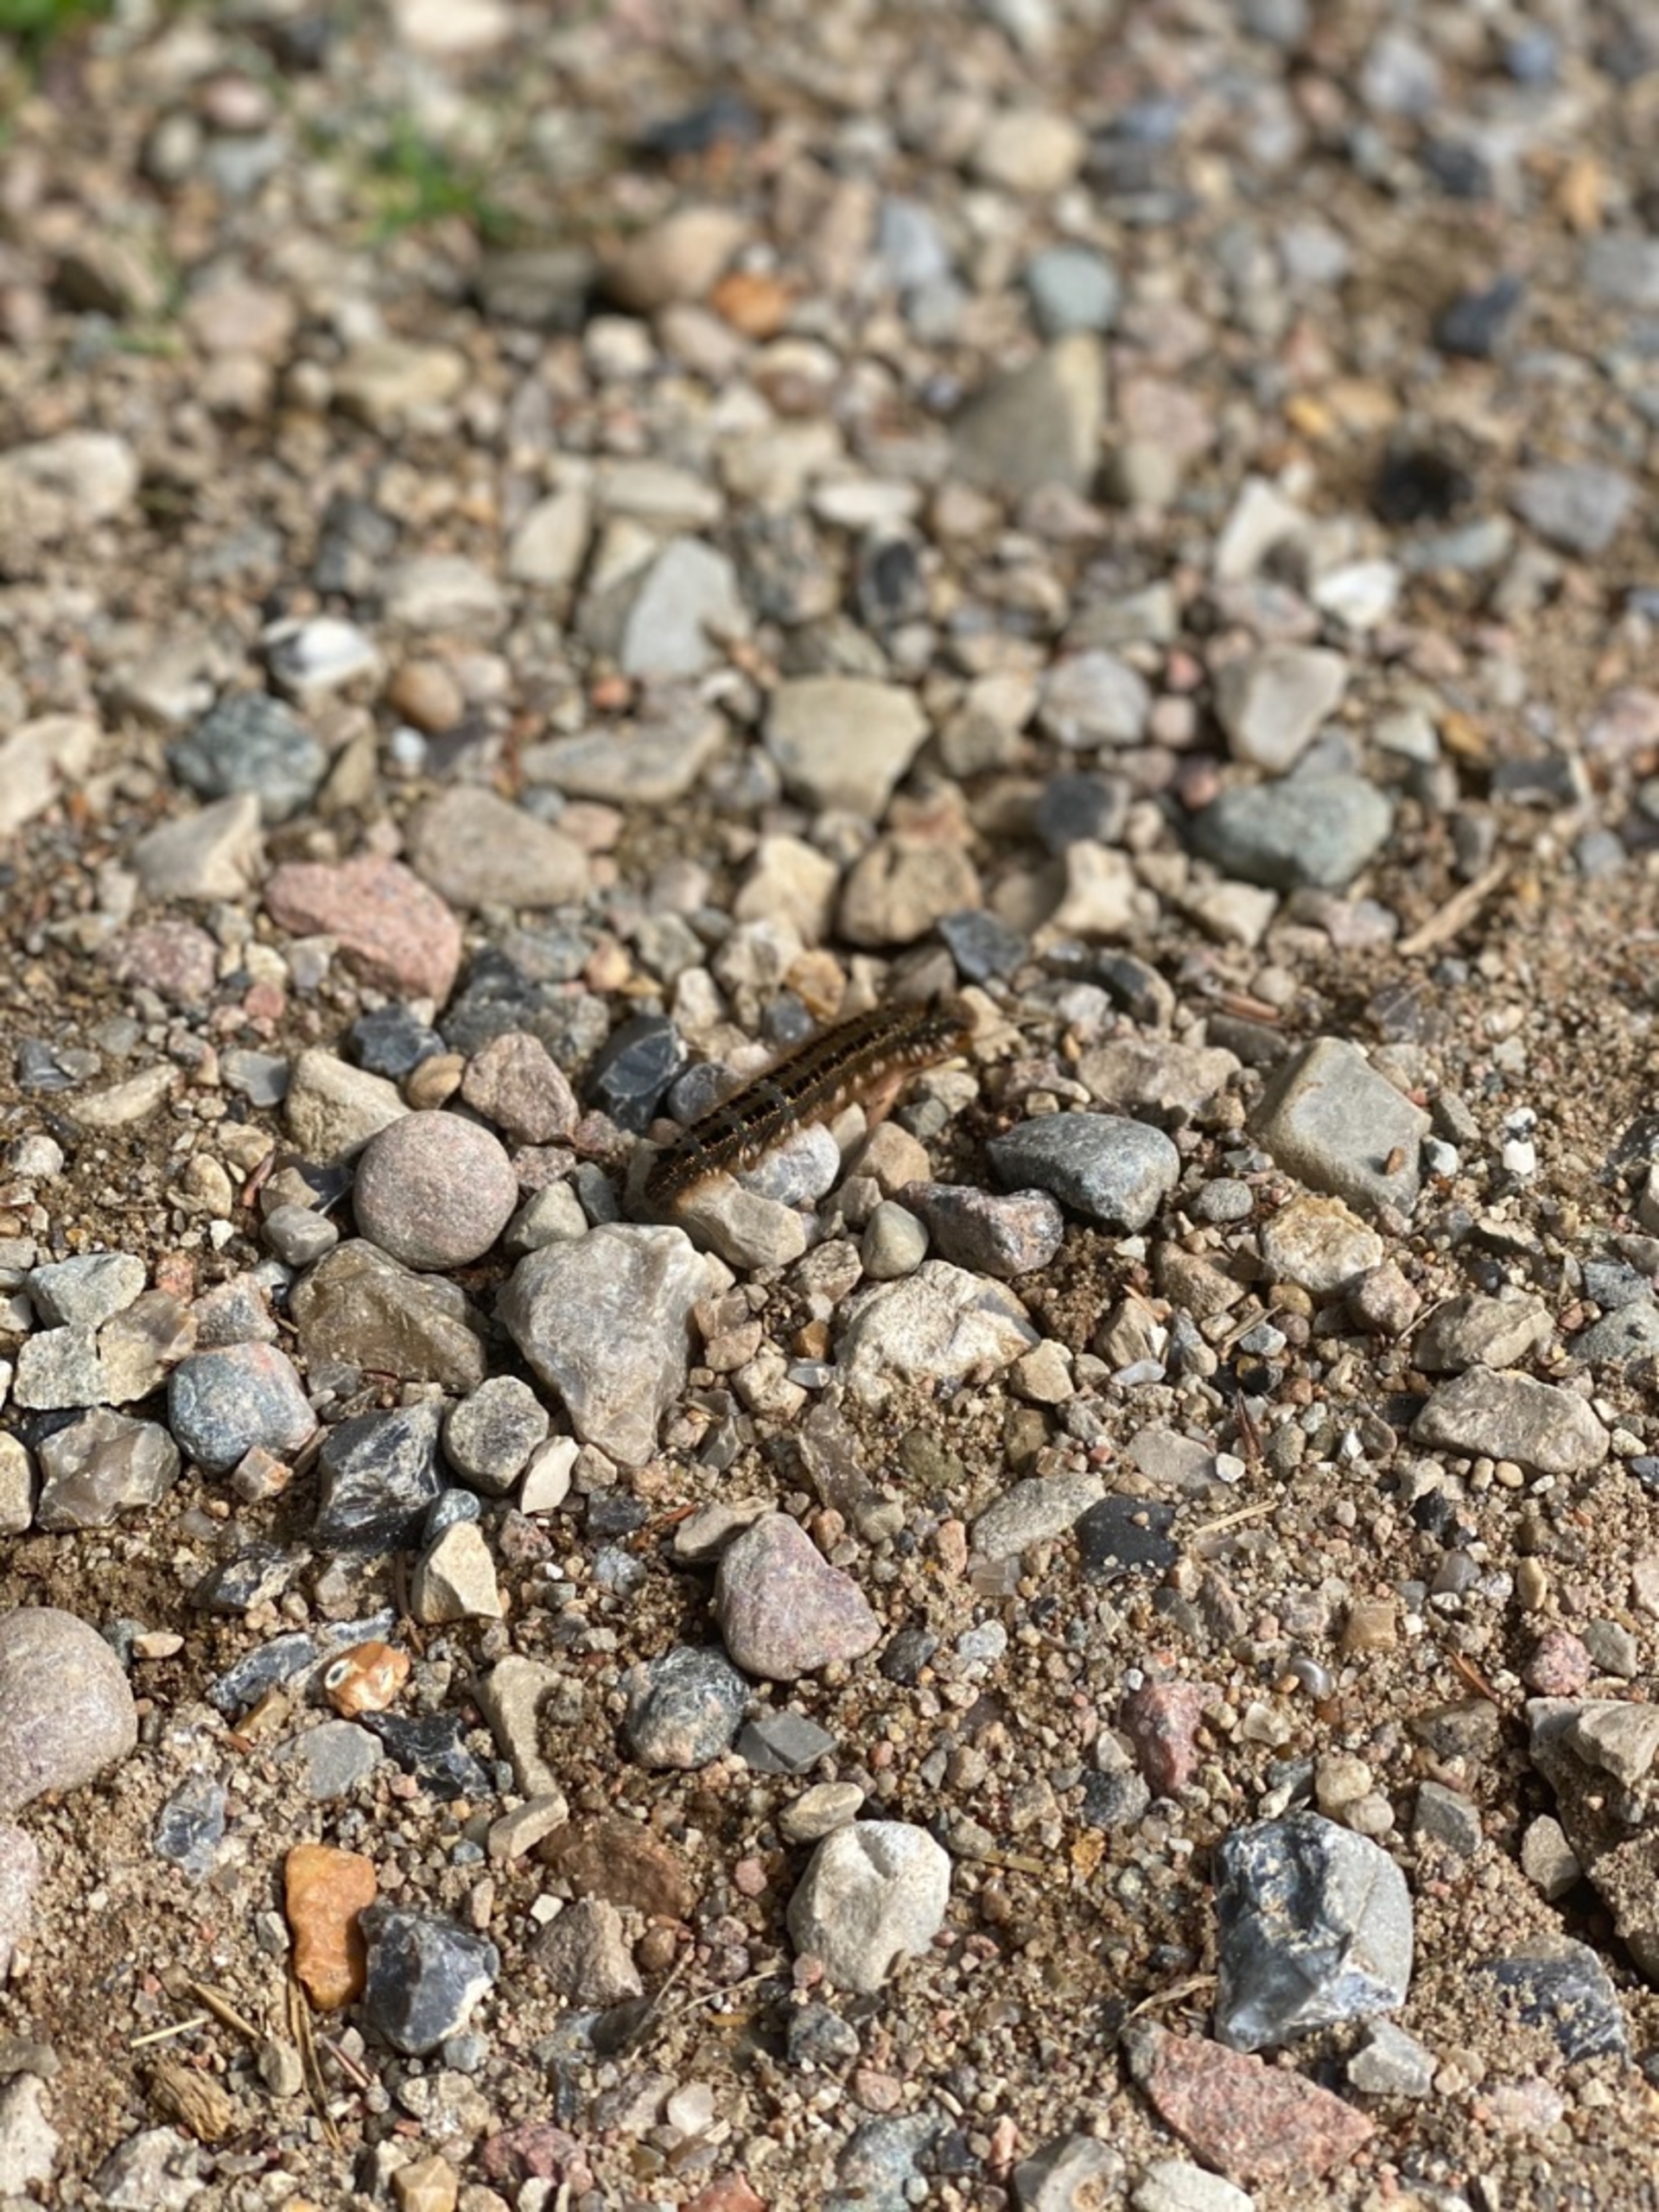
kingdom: Animalia
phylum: Arthropoda
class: Insecta
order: Lepidoptera
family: Lasiocampidae
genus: Euthrix
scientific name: Euthrix potatoria
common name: Græsspinder
